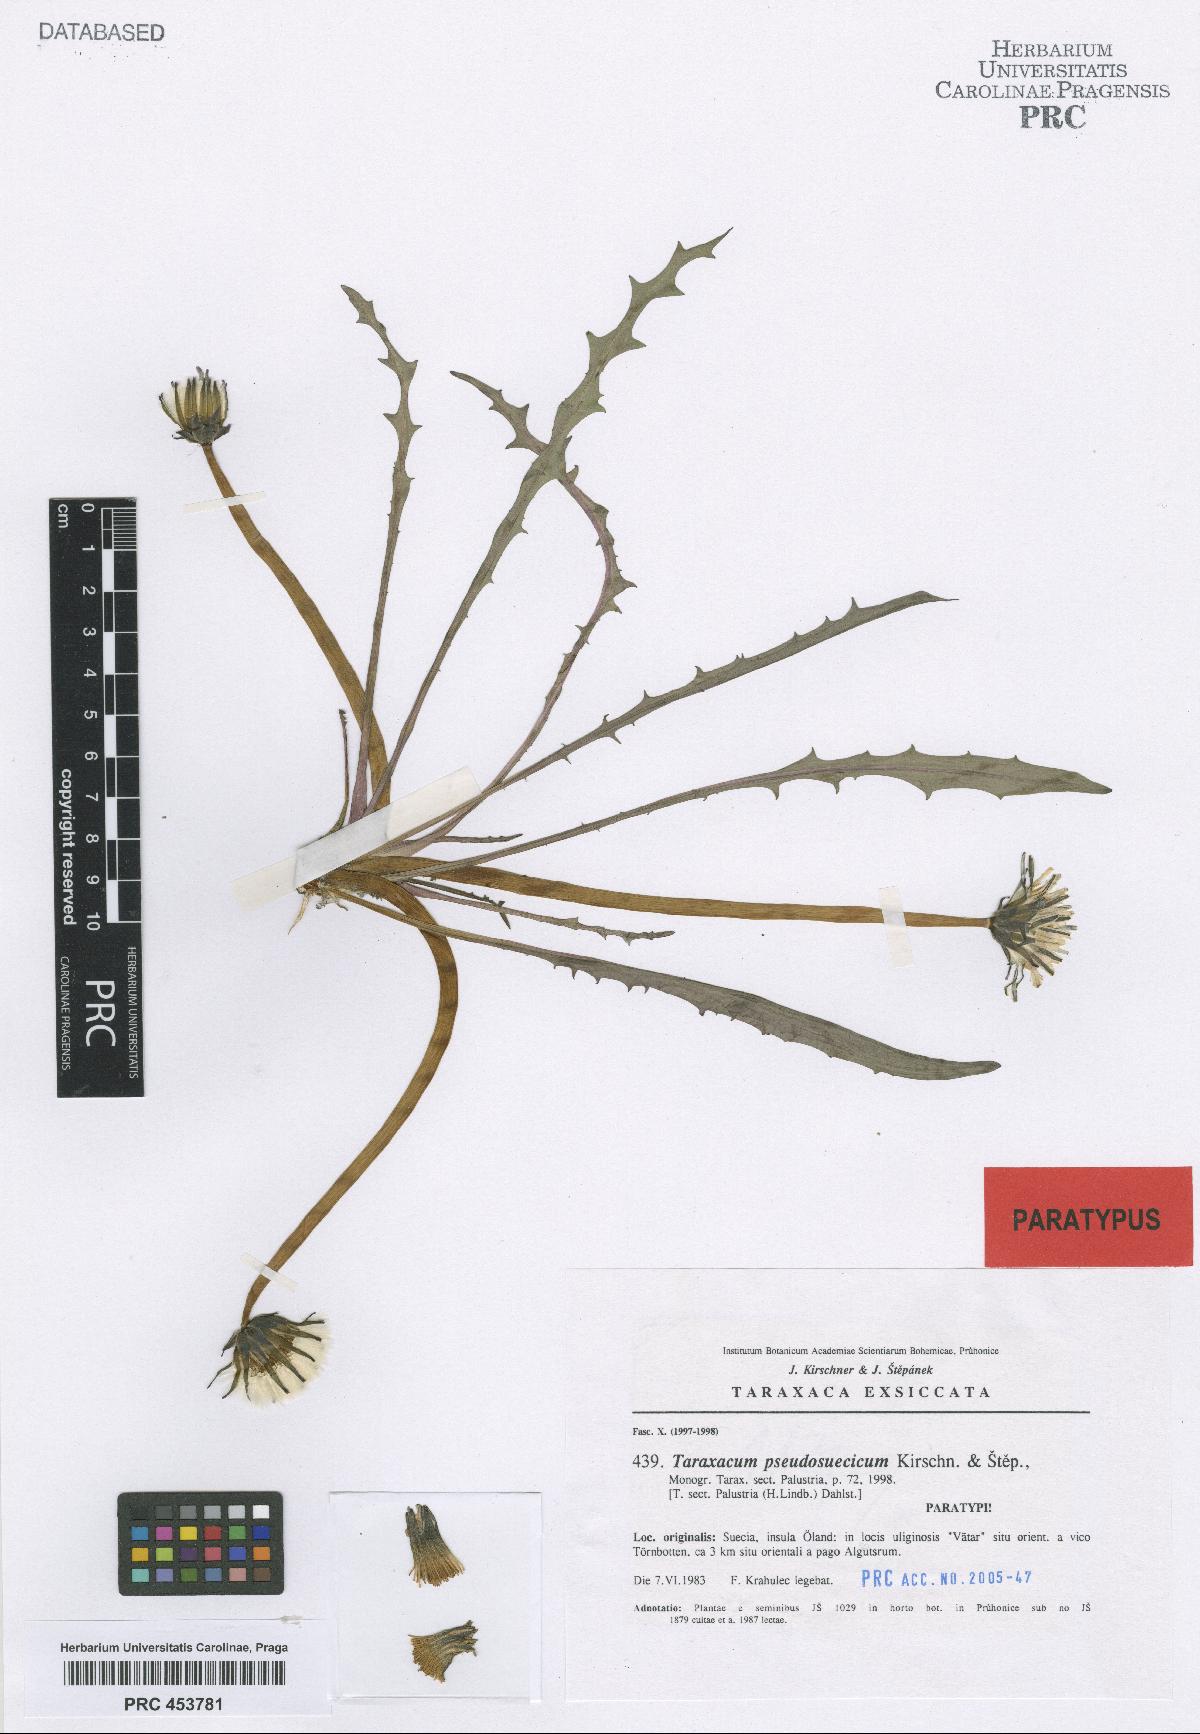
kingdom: Plantae
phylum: Tracheophyta
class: Magnoliopsida
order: Asterales
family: Asteraceae
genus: Taraxacum
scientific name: Taraxacum pseudosuecicum
